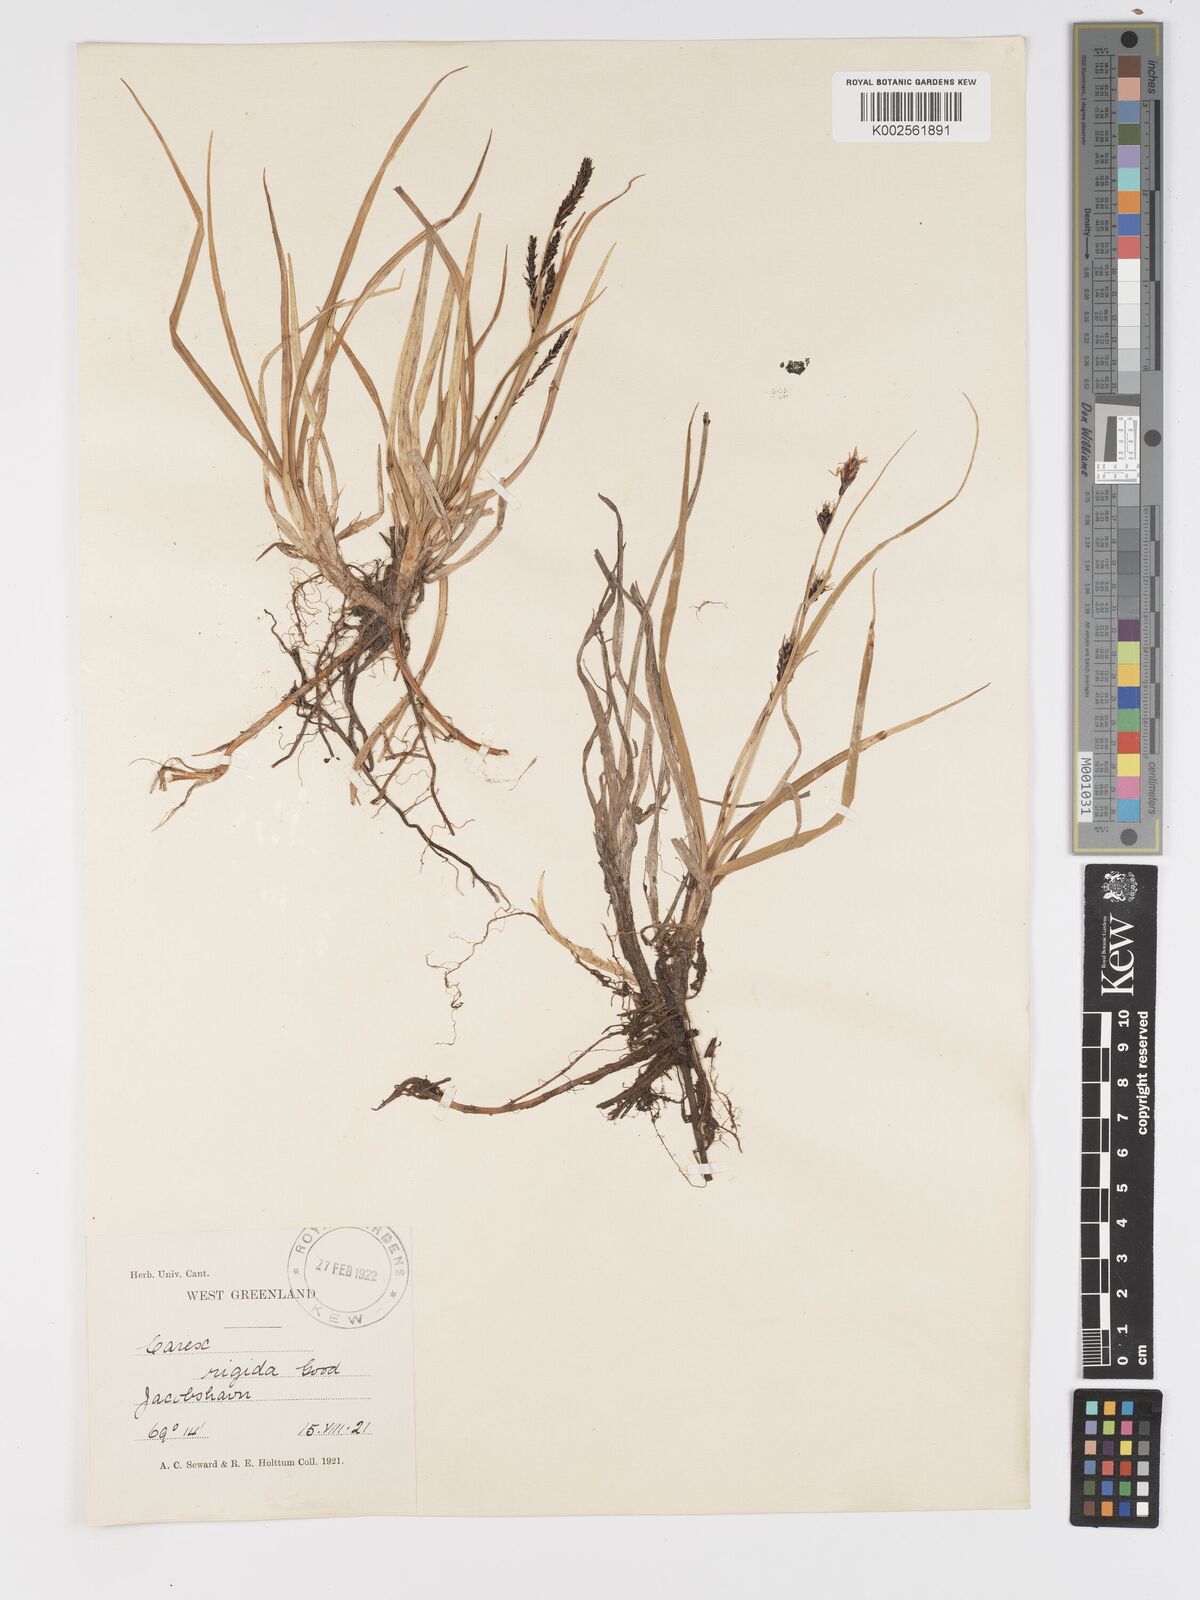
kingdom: Plantae
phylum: Tracheophyta
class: Liliopsida
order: Poales
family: Cyperaceae
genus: Carex
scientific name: Carex bigelowii
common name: Stiff sedge
